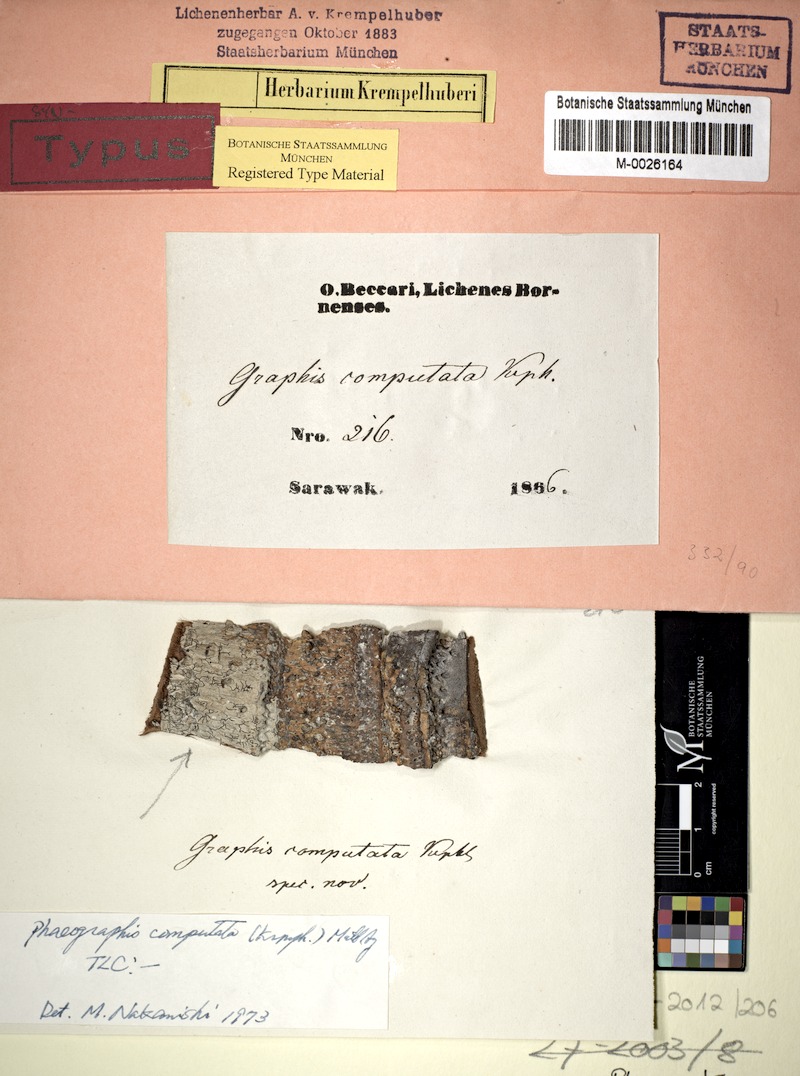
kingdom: Fungi
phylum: Ascomycota
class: Lecanoromycetes
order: Ostropales
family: Graphidaceae
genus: Platygramme
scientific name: Platygramme computata
